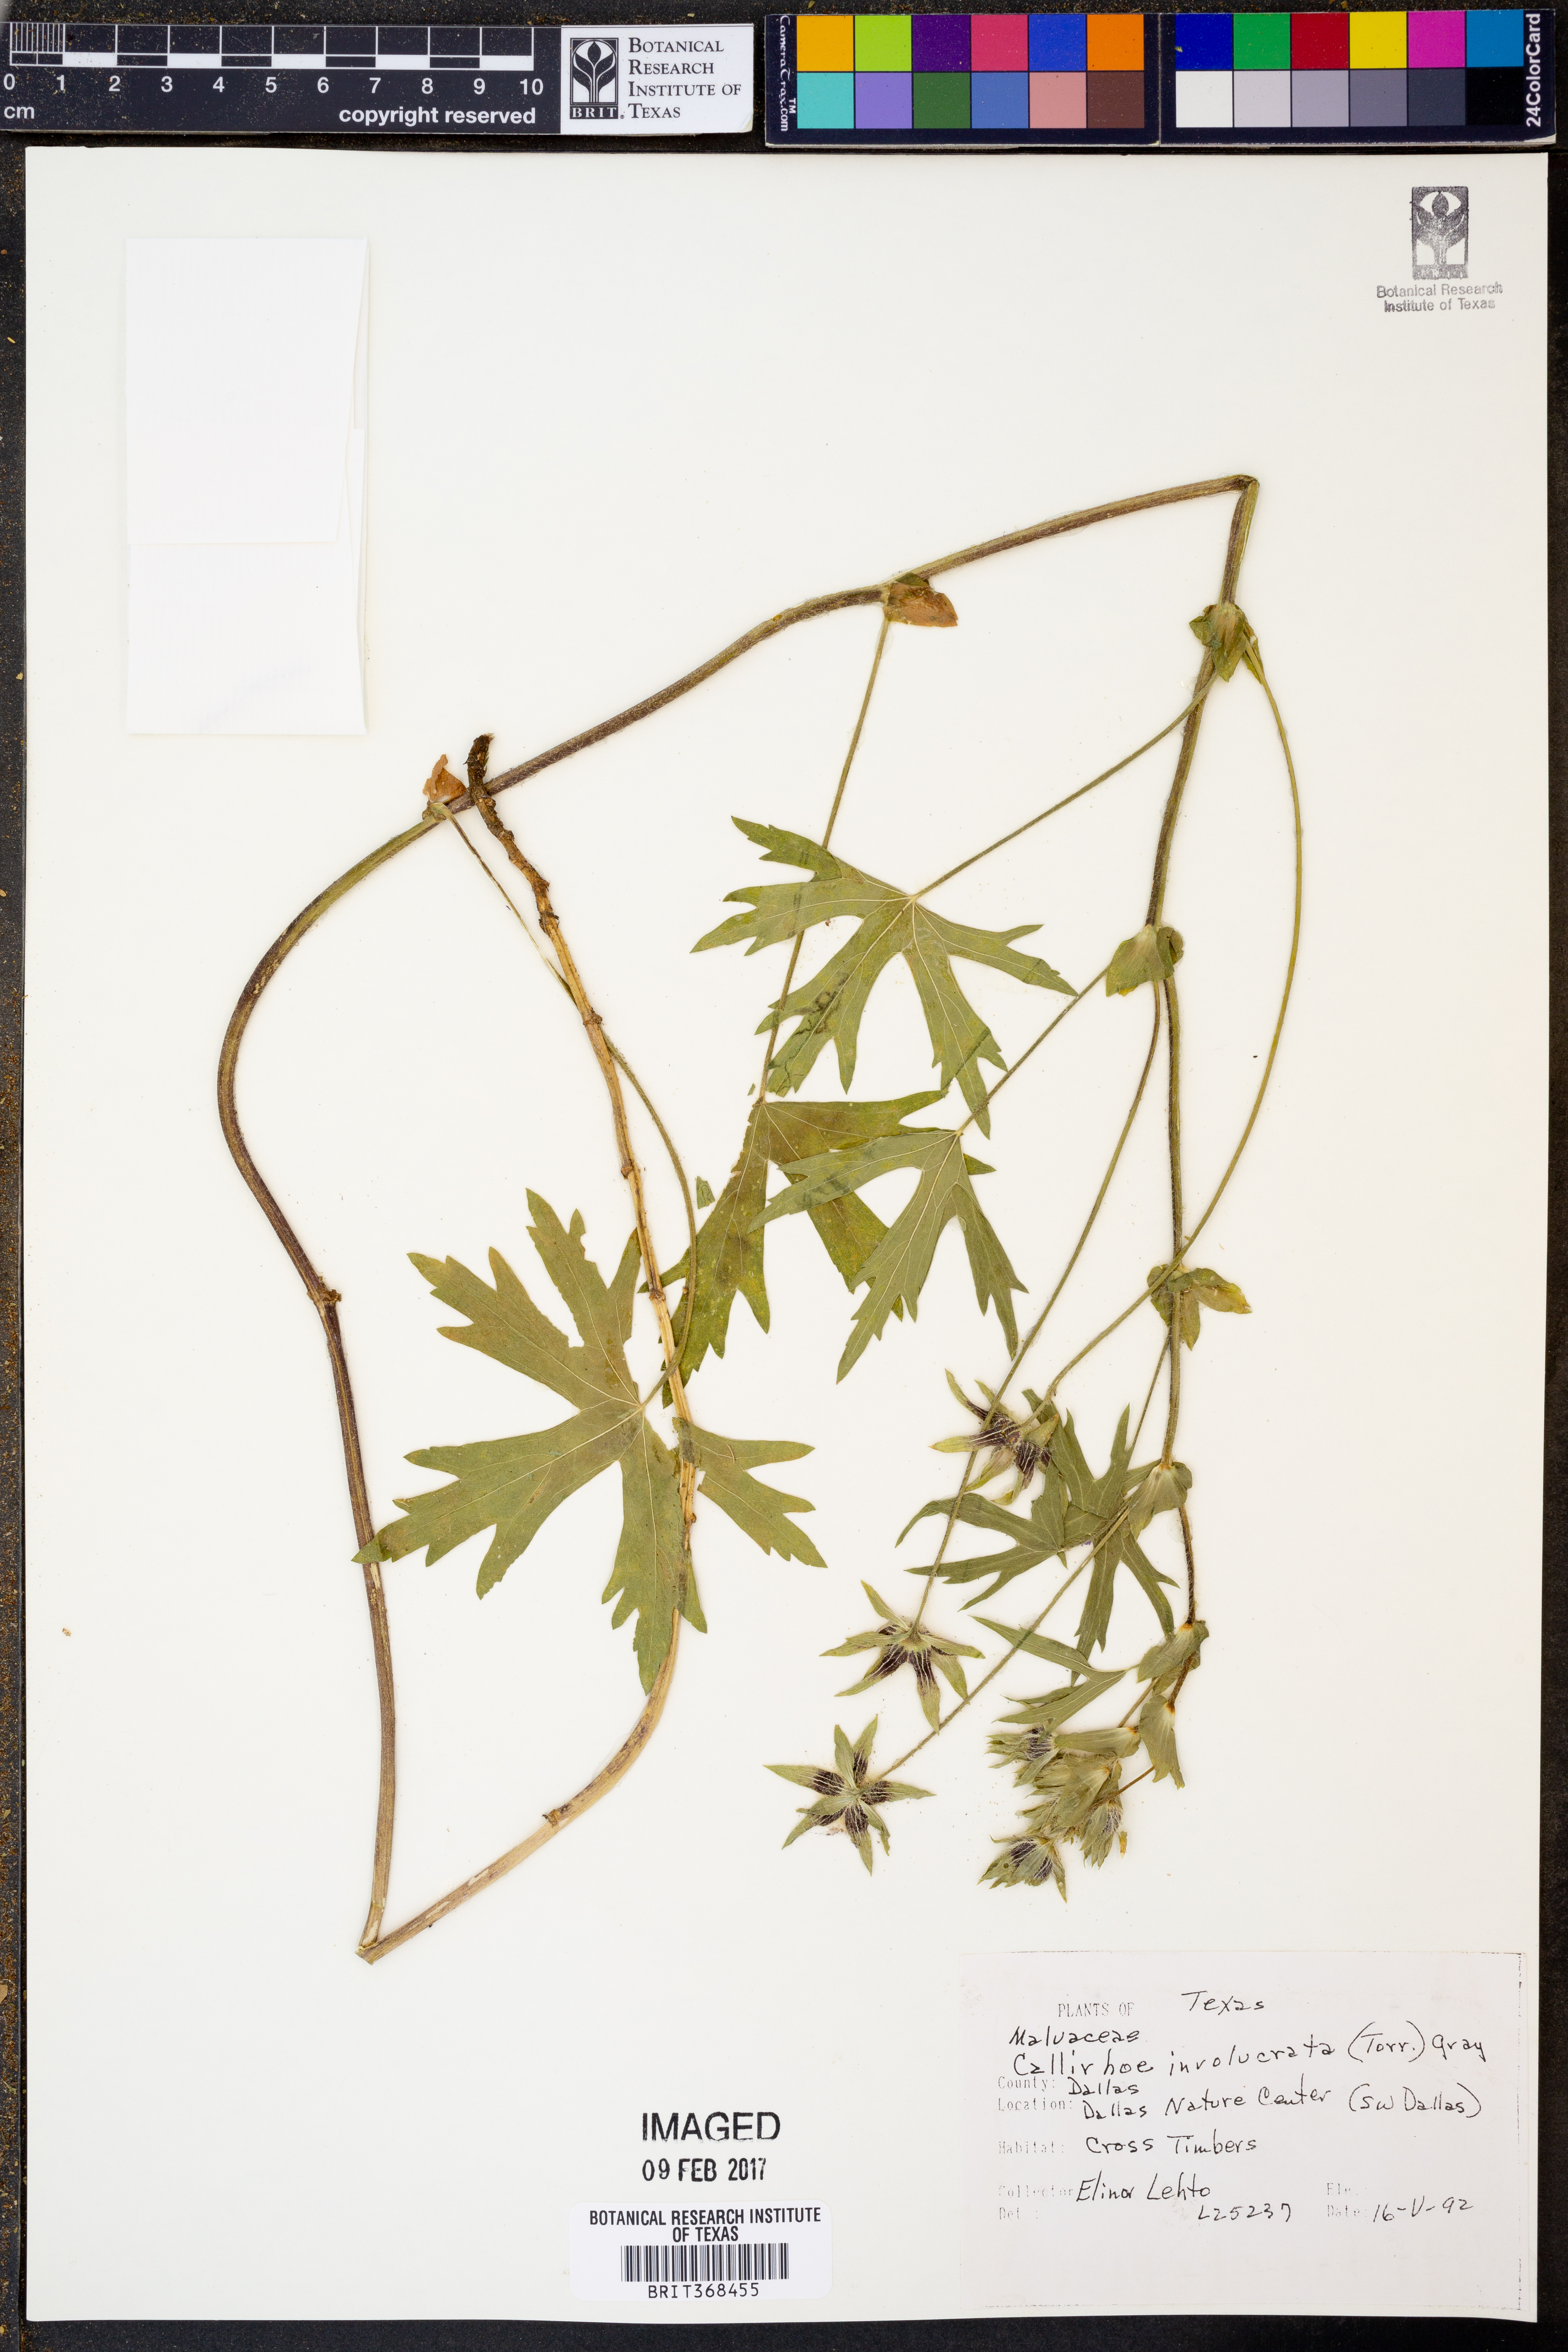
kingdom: Plantae
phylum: Tracheophyta
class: Magnoliopsida
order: Malvales
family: Malvaceae
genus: Callirhoe
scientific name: Callirhoe involucrata
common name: Purple poppy-mallow
